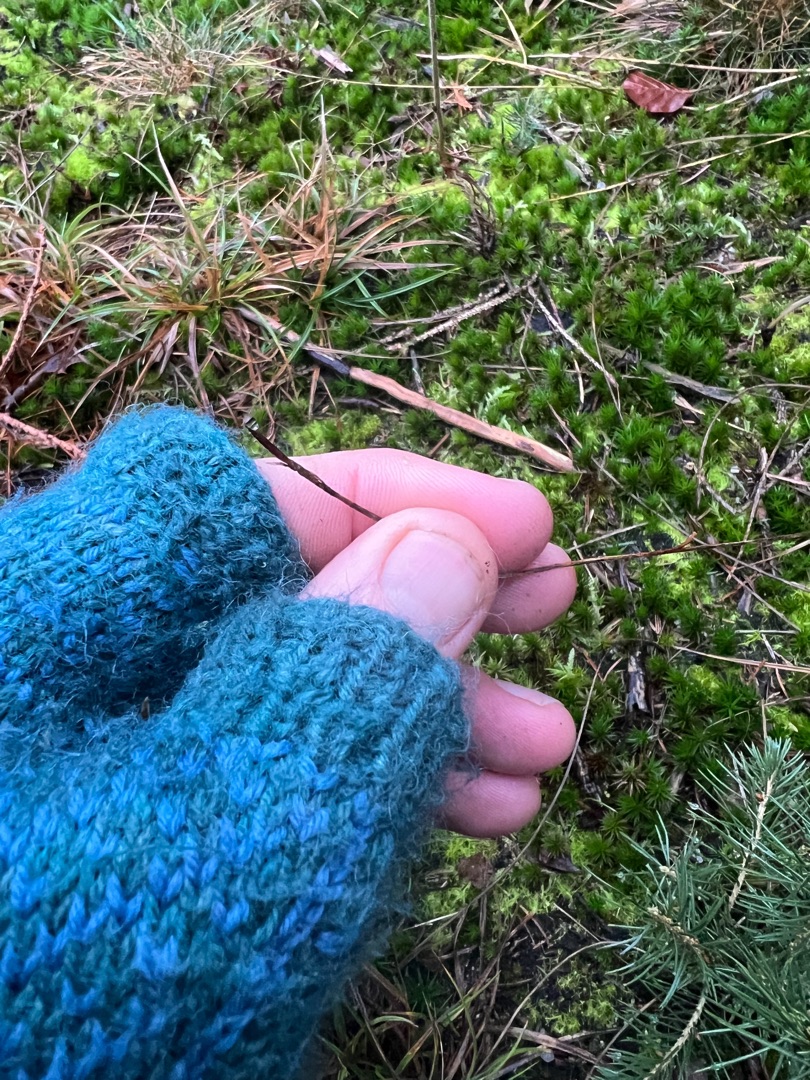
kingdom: Plantae
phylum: Tracheophyta
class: Liliopsida
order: Poales
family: Cyperaceae
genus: Carex
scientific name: Carex pilulifera
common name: Pille-star
